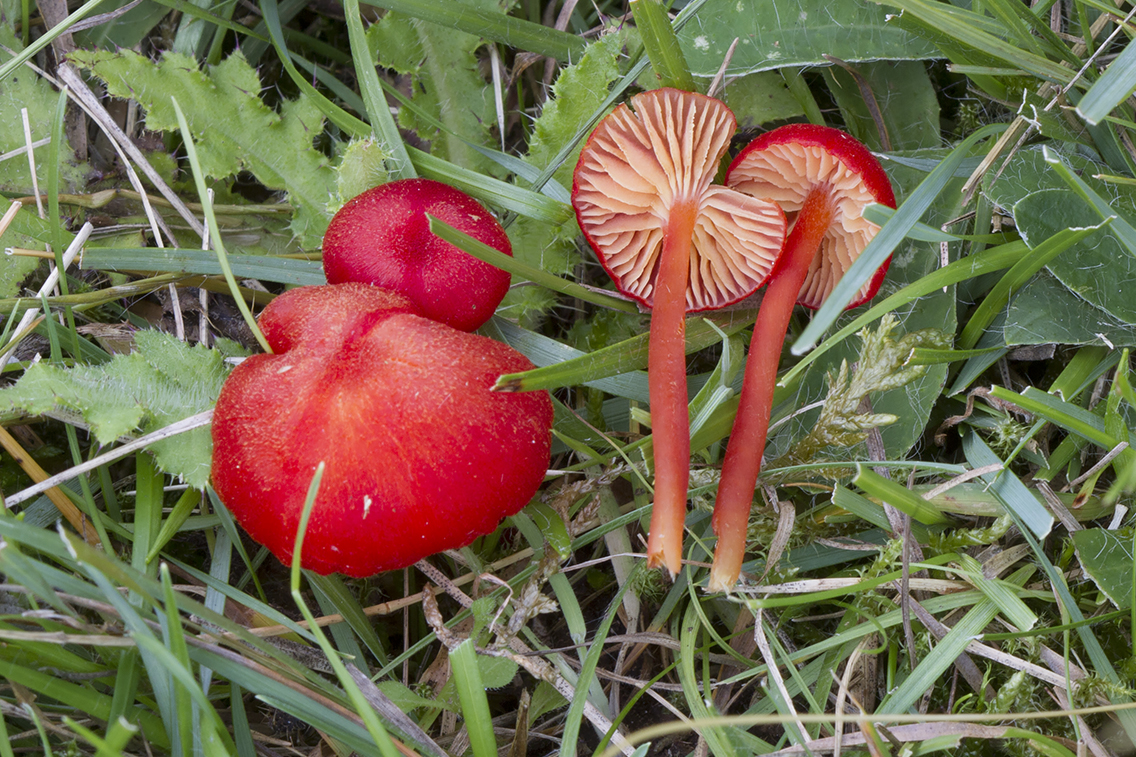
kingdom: Fungi
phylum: Basidiomycota
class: Agaricomycetes
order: Agaricales
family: Hygrophoraceae
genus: Hygrocybe
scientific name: Hygrocybe helobia
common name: hvidløgs-vokshat
